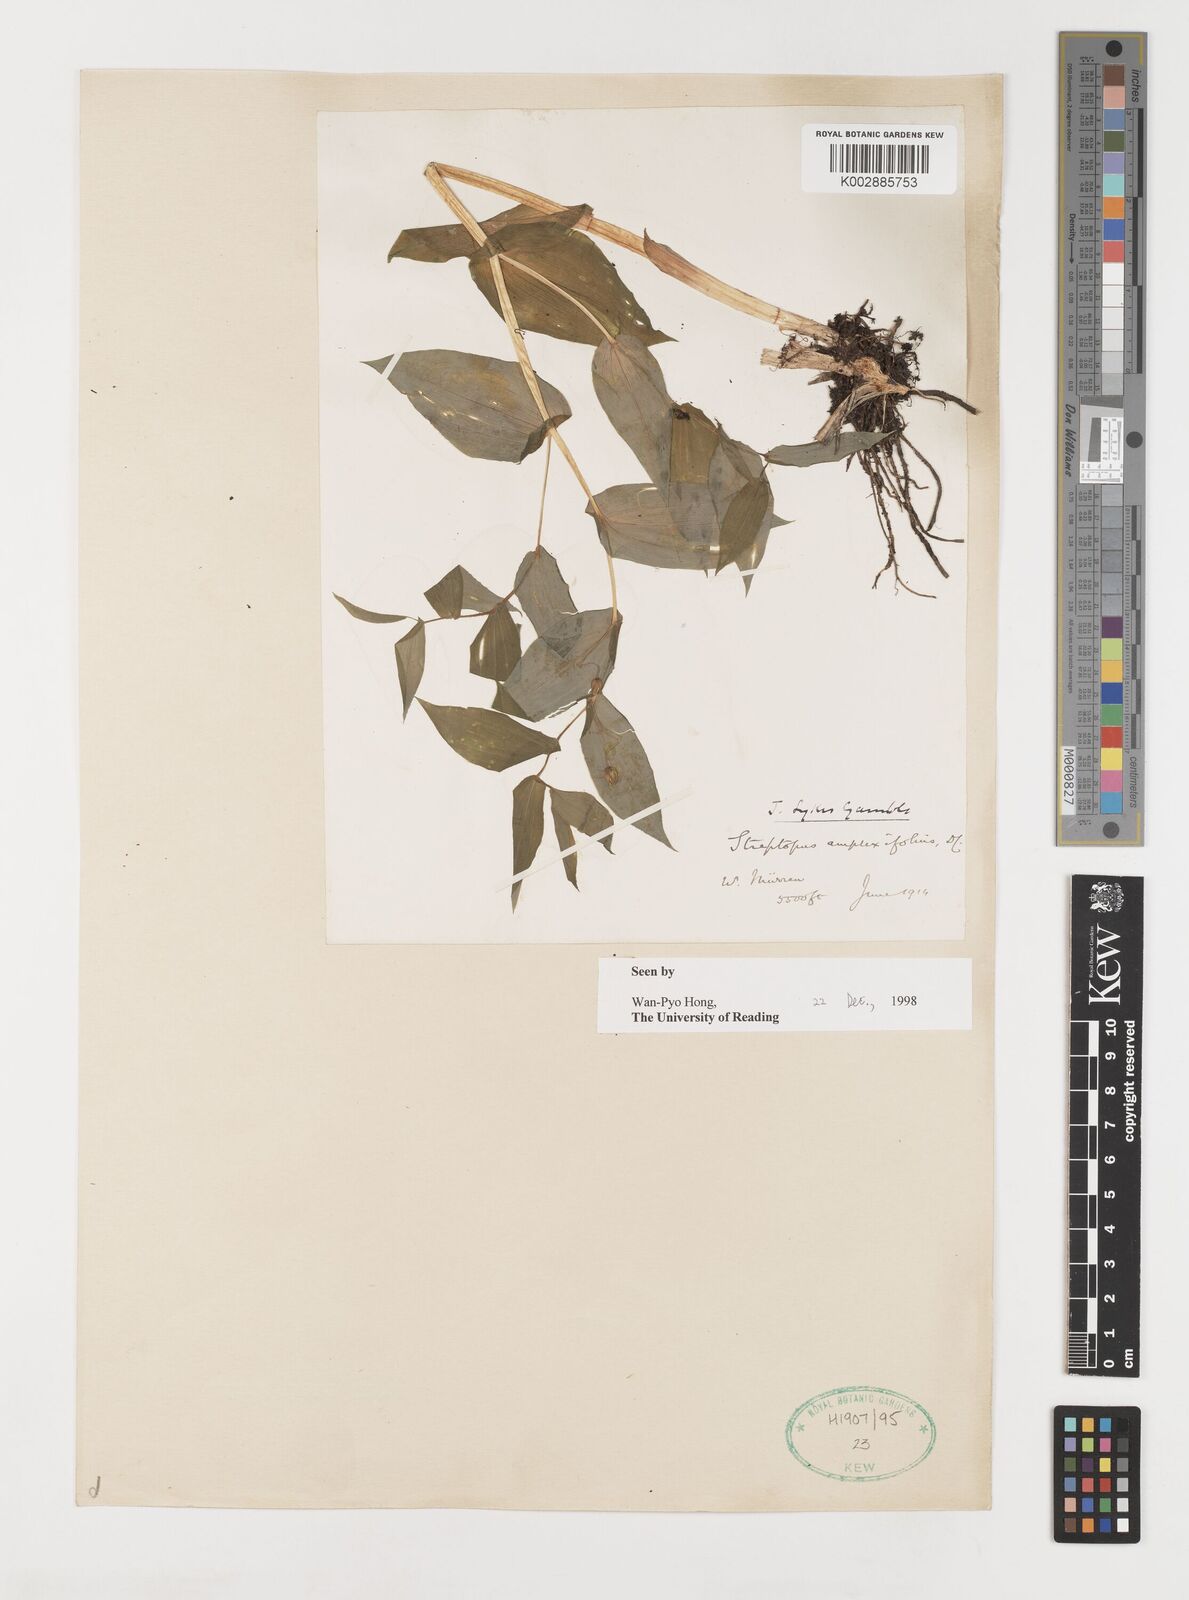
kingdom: Plantae
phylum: Tracheophyta
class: Liliopsida
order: Liliales
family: Liliaceae
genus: Streptopus
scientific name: Streptopus amplexifolius
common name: Clasp twisted stalk
